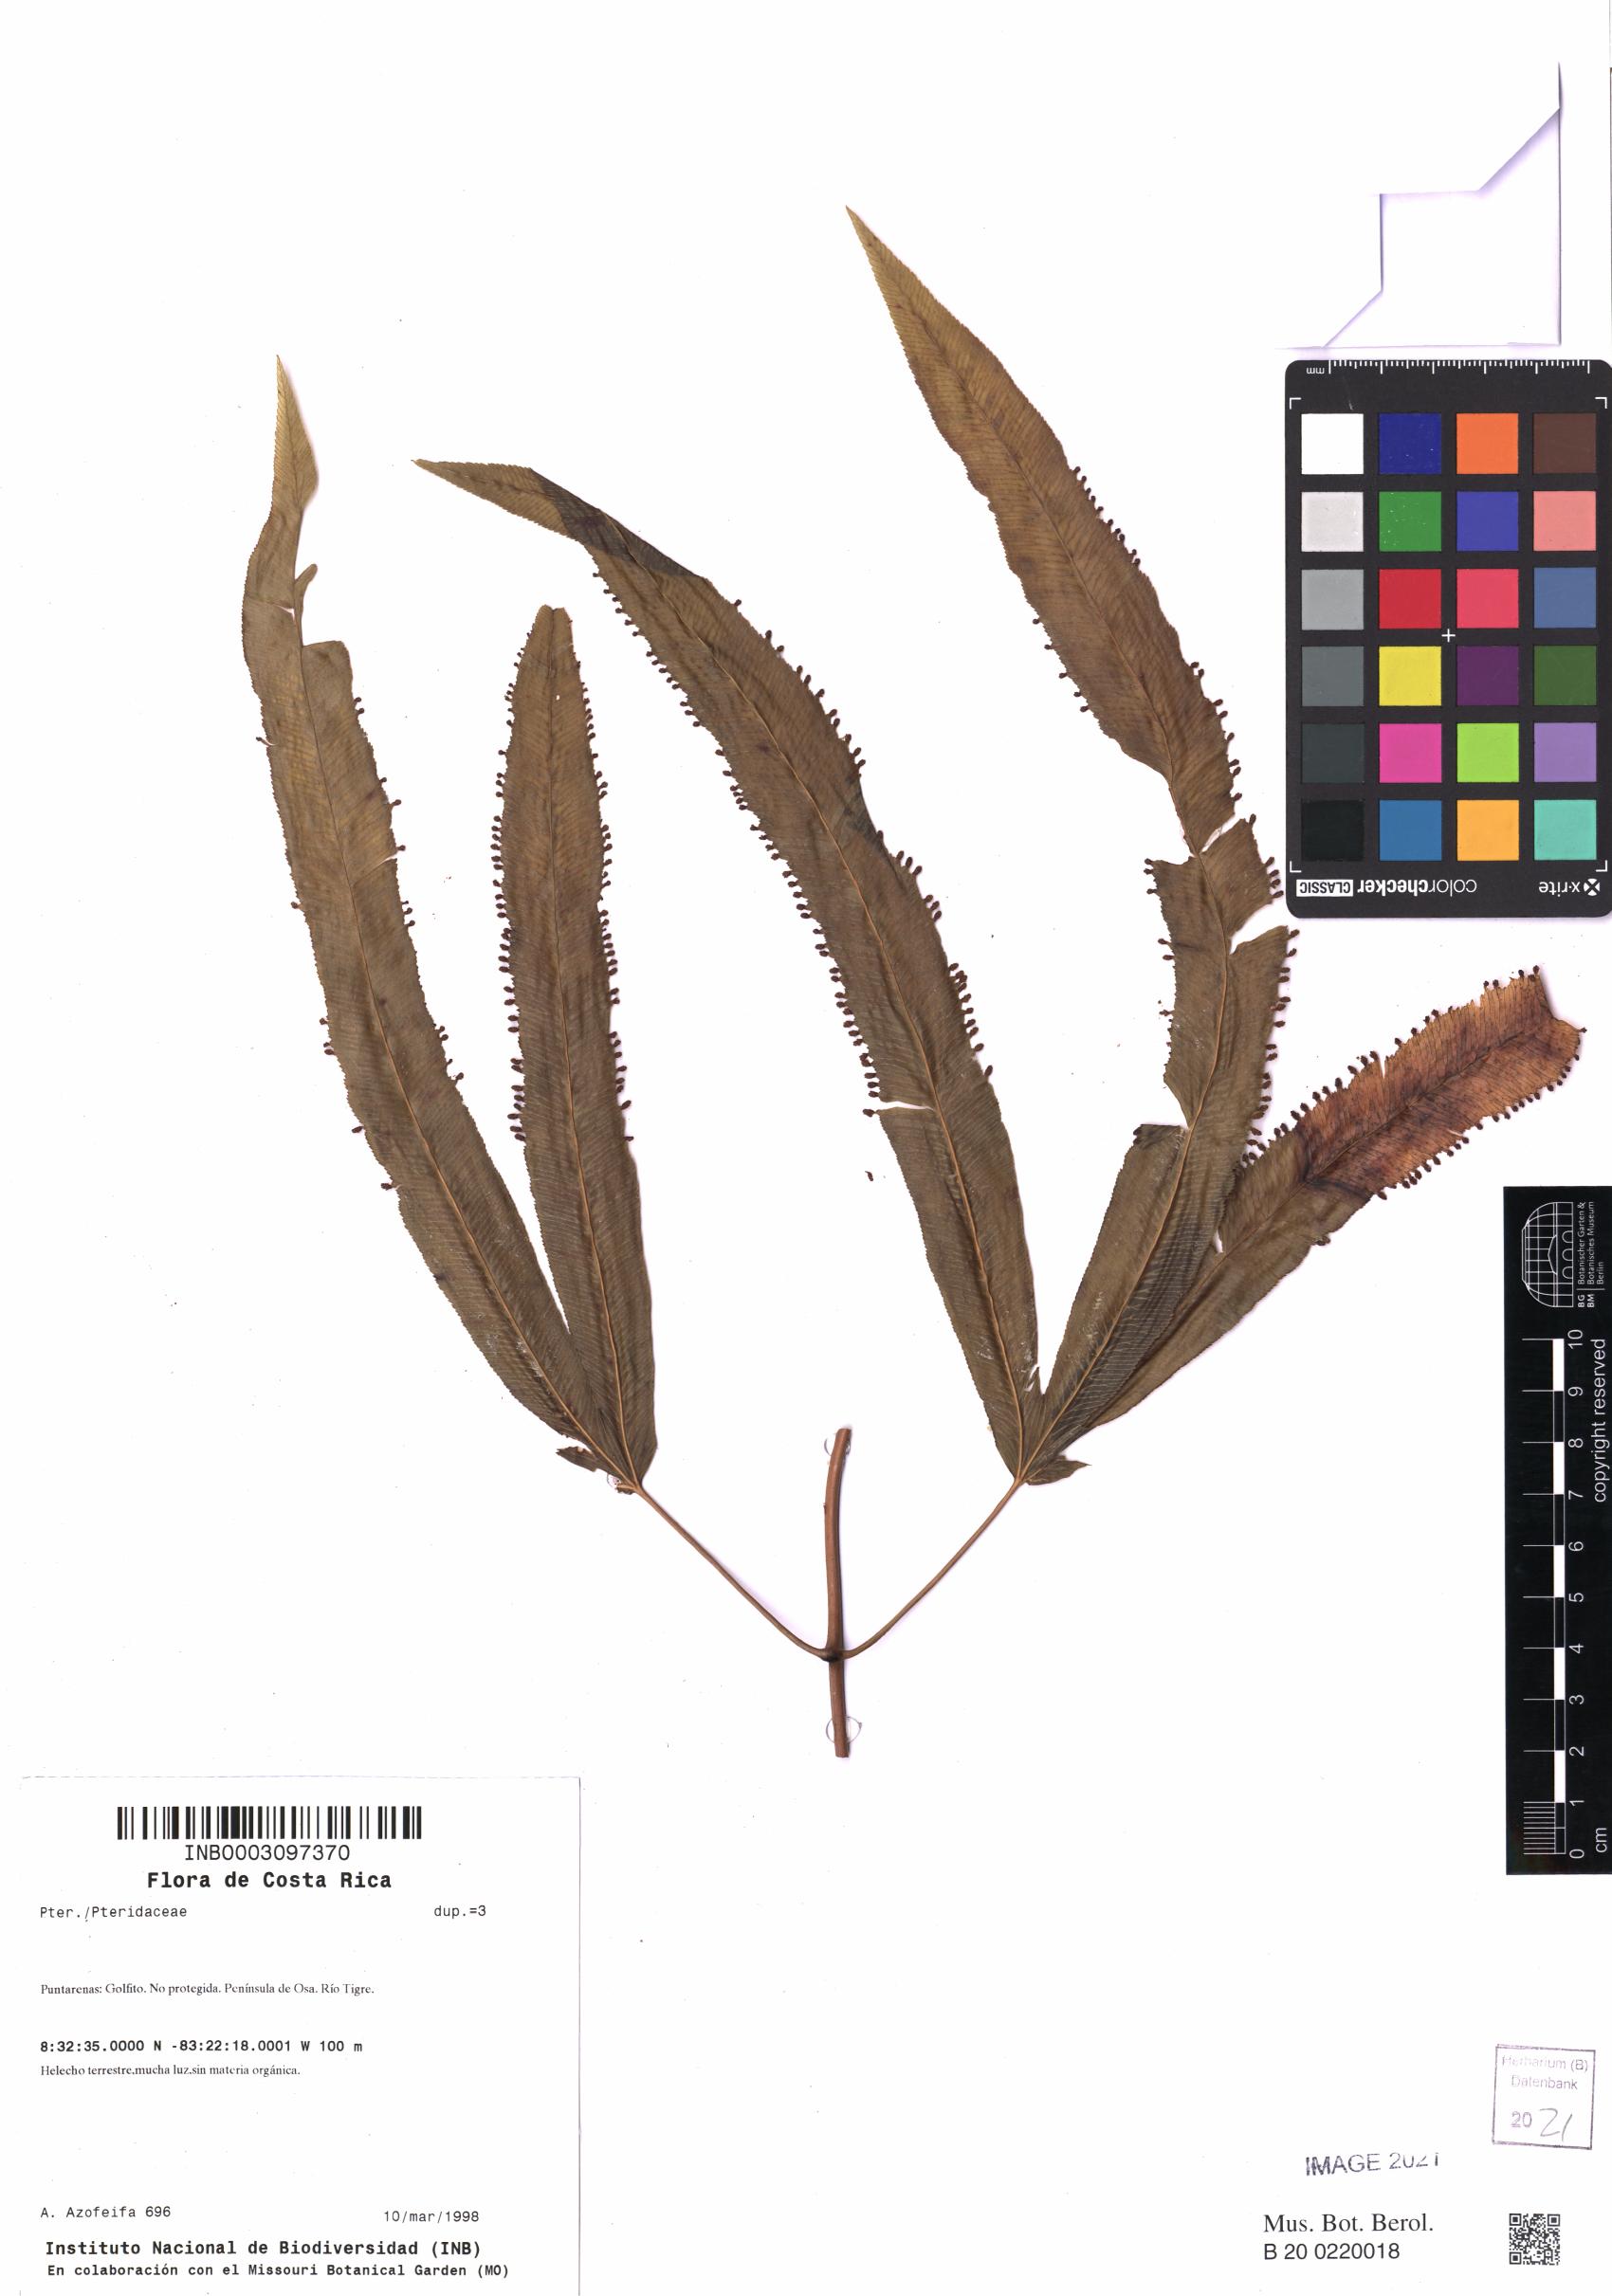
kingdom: Plantae
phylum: Tracheophyta
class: Polypodiopsida
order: Polypodiales
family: Pteridaceae
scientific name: Pteridaceae
